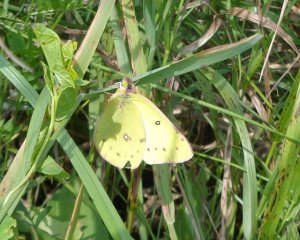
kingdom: Animalia
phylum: Arthropoda
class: Insecta
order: Lepidoptera
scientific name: Lepidoptera
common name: Butterflies
